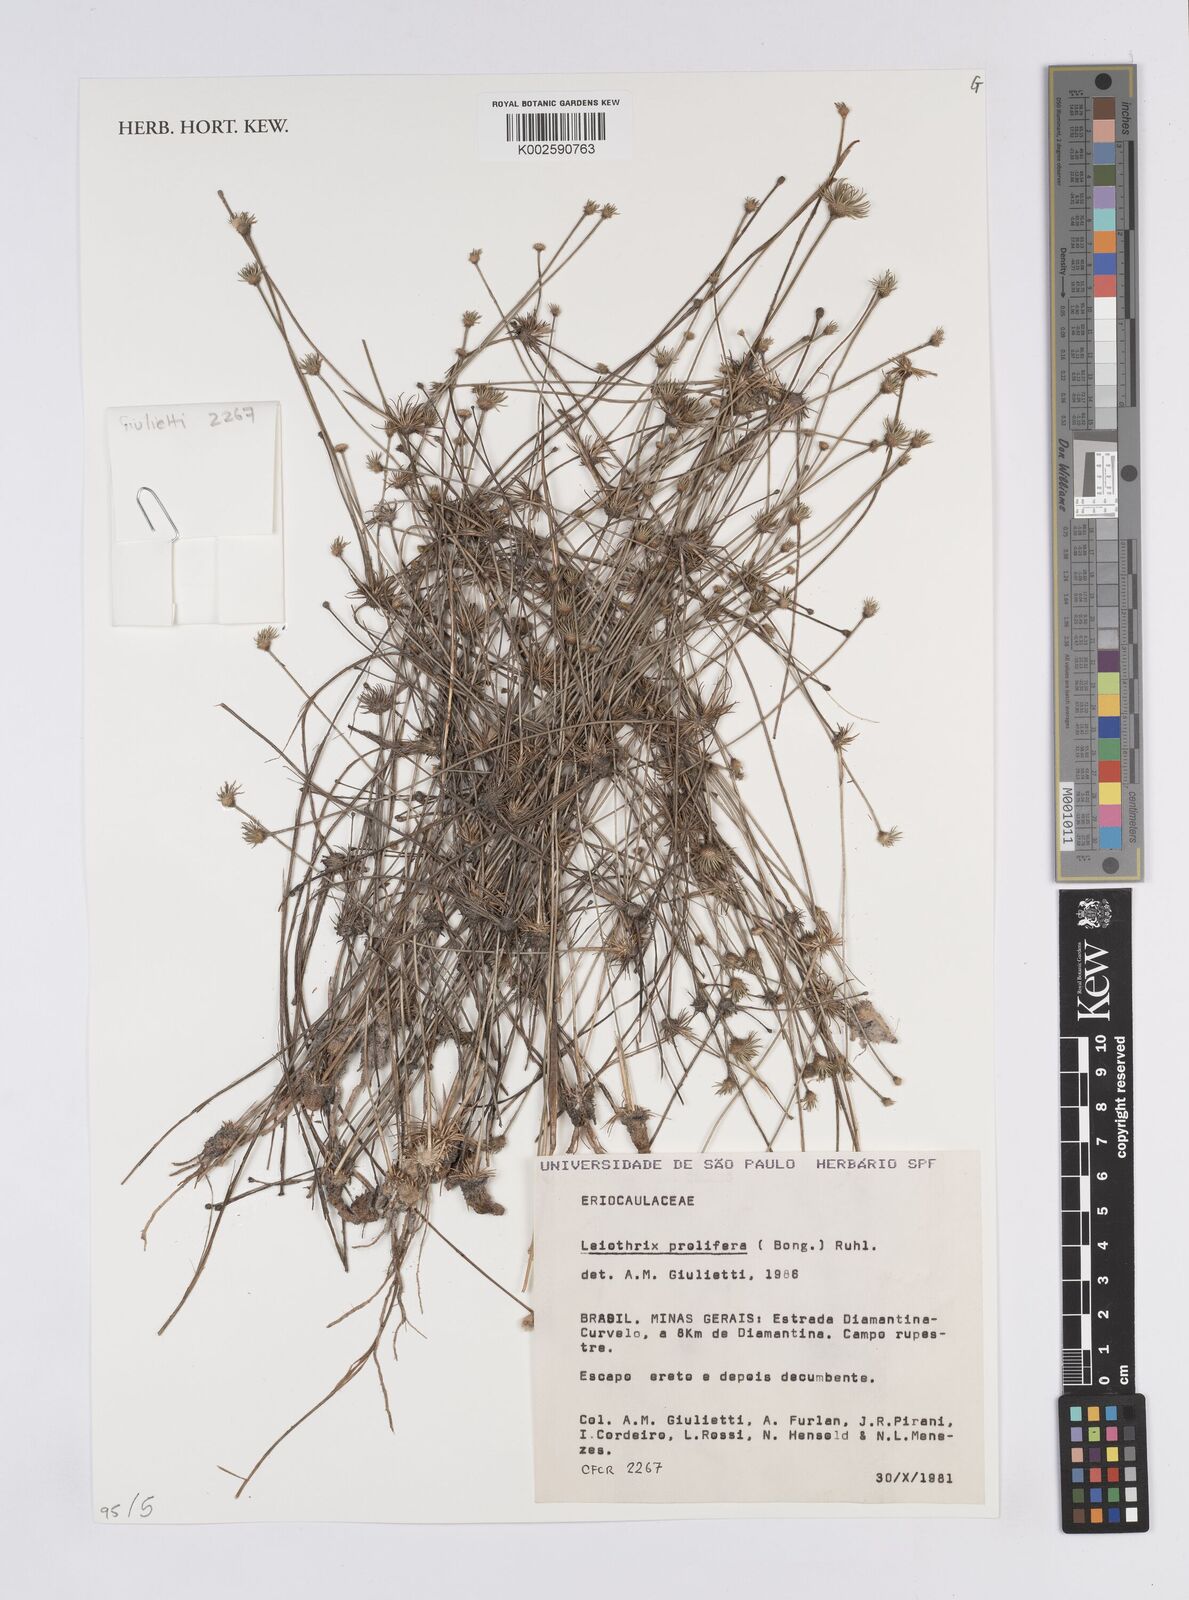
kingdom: Plantae
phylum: Tracheophyta
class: Liliopsida
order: Poales
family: Eriocaulaceae
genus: Leiothrix
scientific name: Leiothrix prolifera
